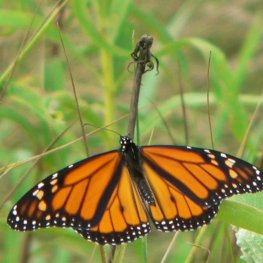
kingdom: Animalia
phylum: Arthropoda
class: Insecta
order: Lepidoptera
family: Nymphalidae
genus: Danaus
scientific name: Danaus plexippus
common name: Monarch
